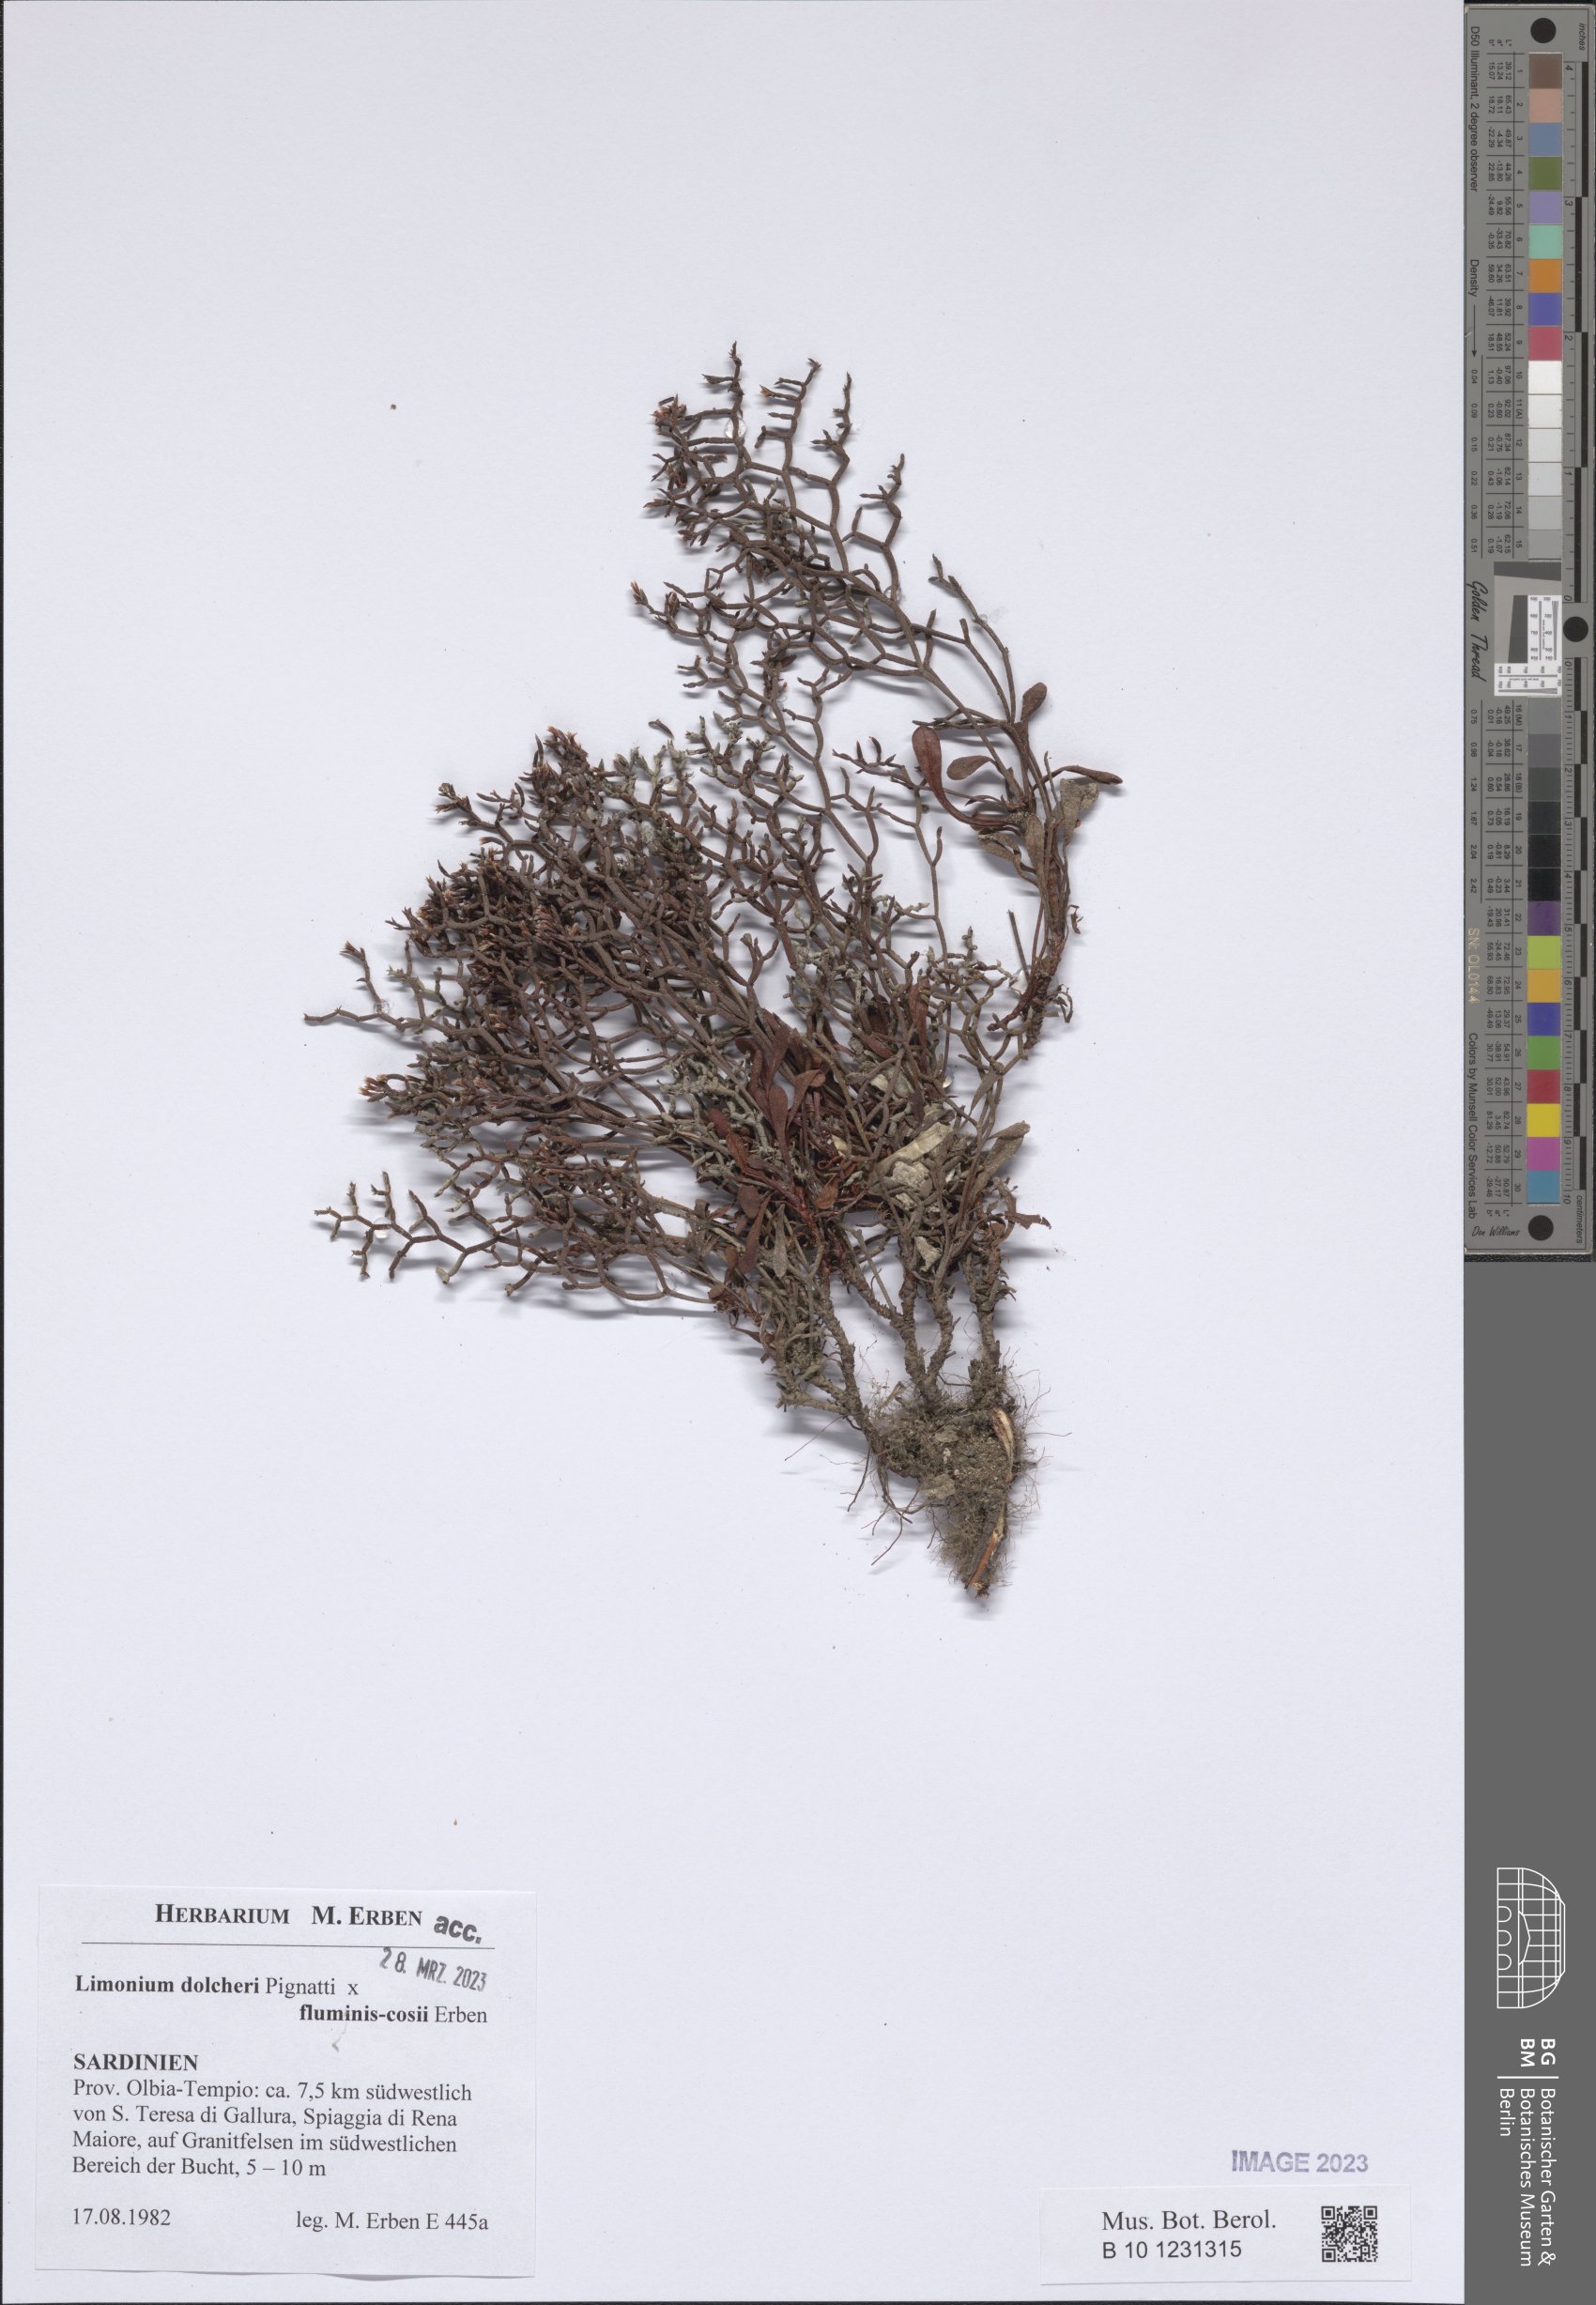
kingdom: Plantae
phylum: Tracheophyta
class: Magnoliopsida
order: Caryophyllales
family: Plumbaginaceae
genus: Limonium
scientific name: Limonium dolcheri
